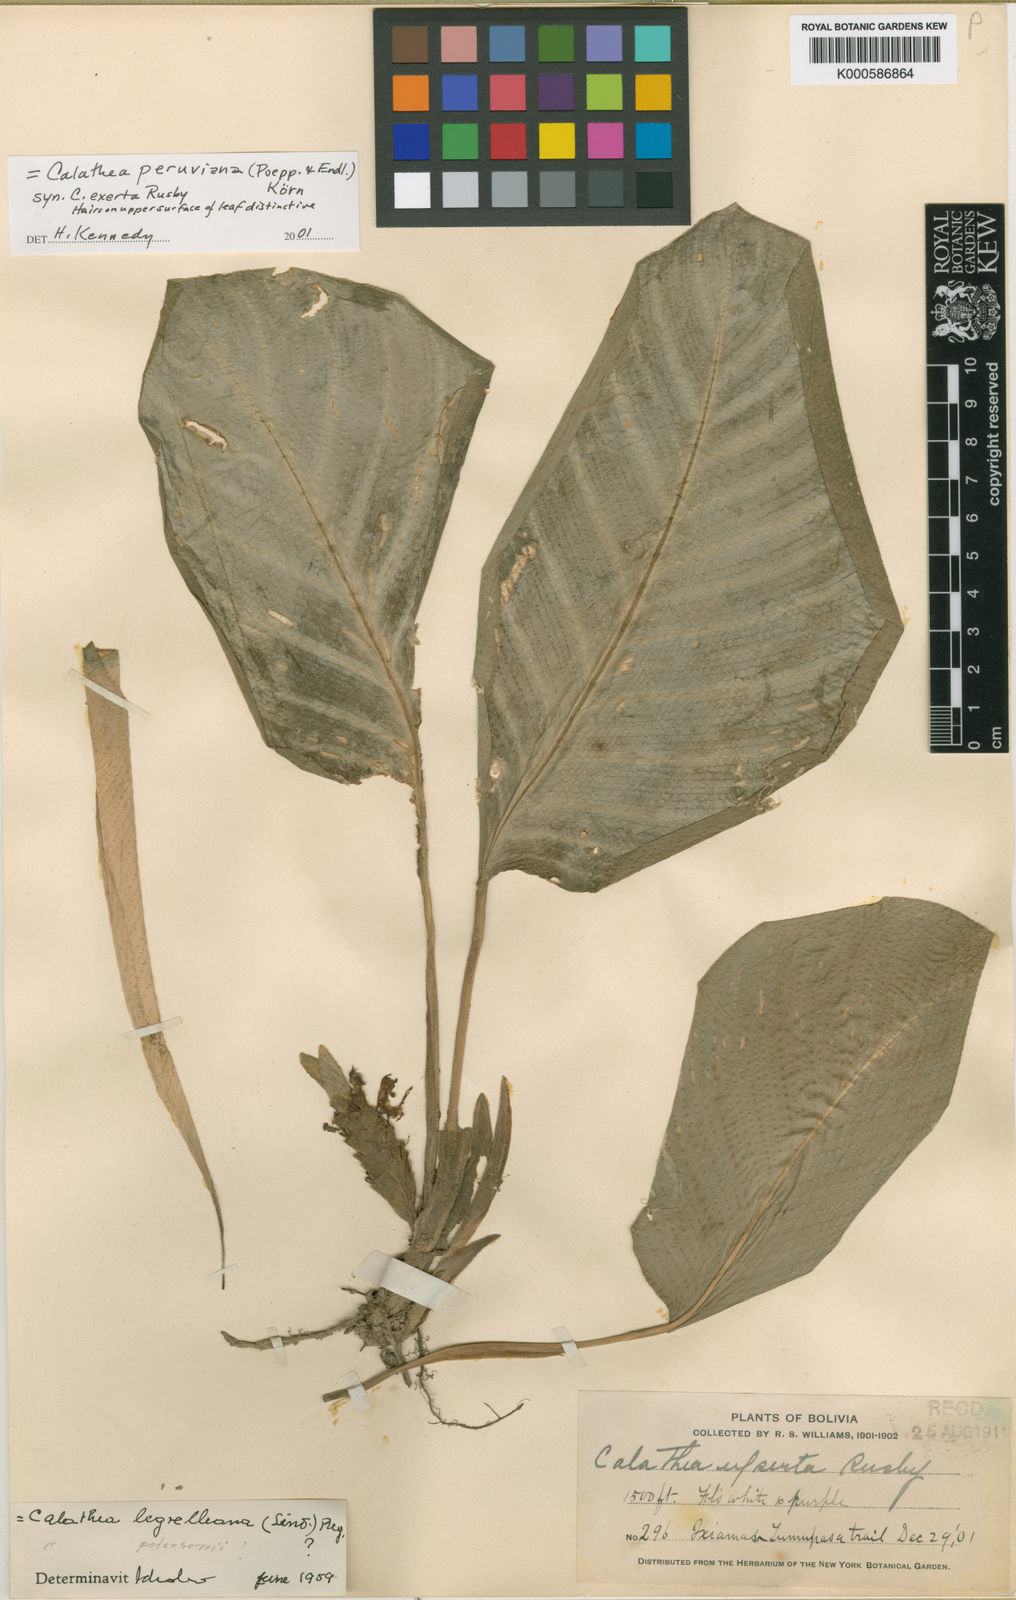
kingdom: Plantae
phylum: Tracheophyta
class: Liliopsida
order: Zingiberales
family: Marantaceae
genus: Goeppertia
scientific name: Goeppertia peruviana
